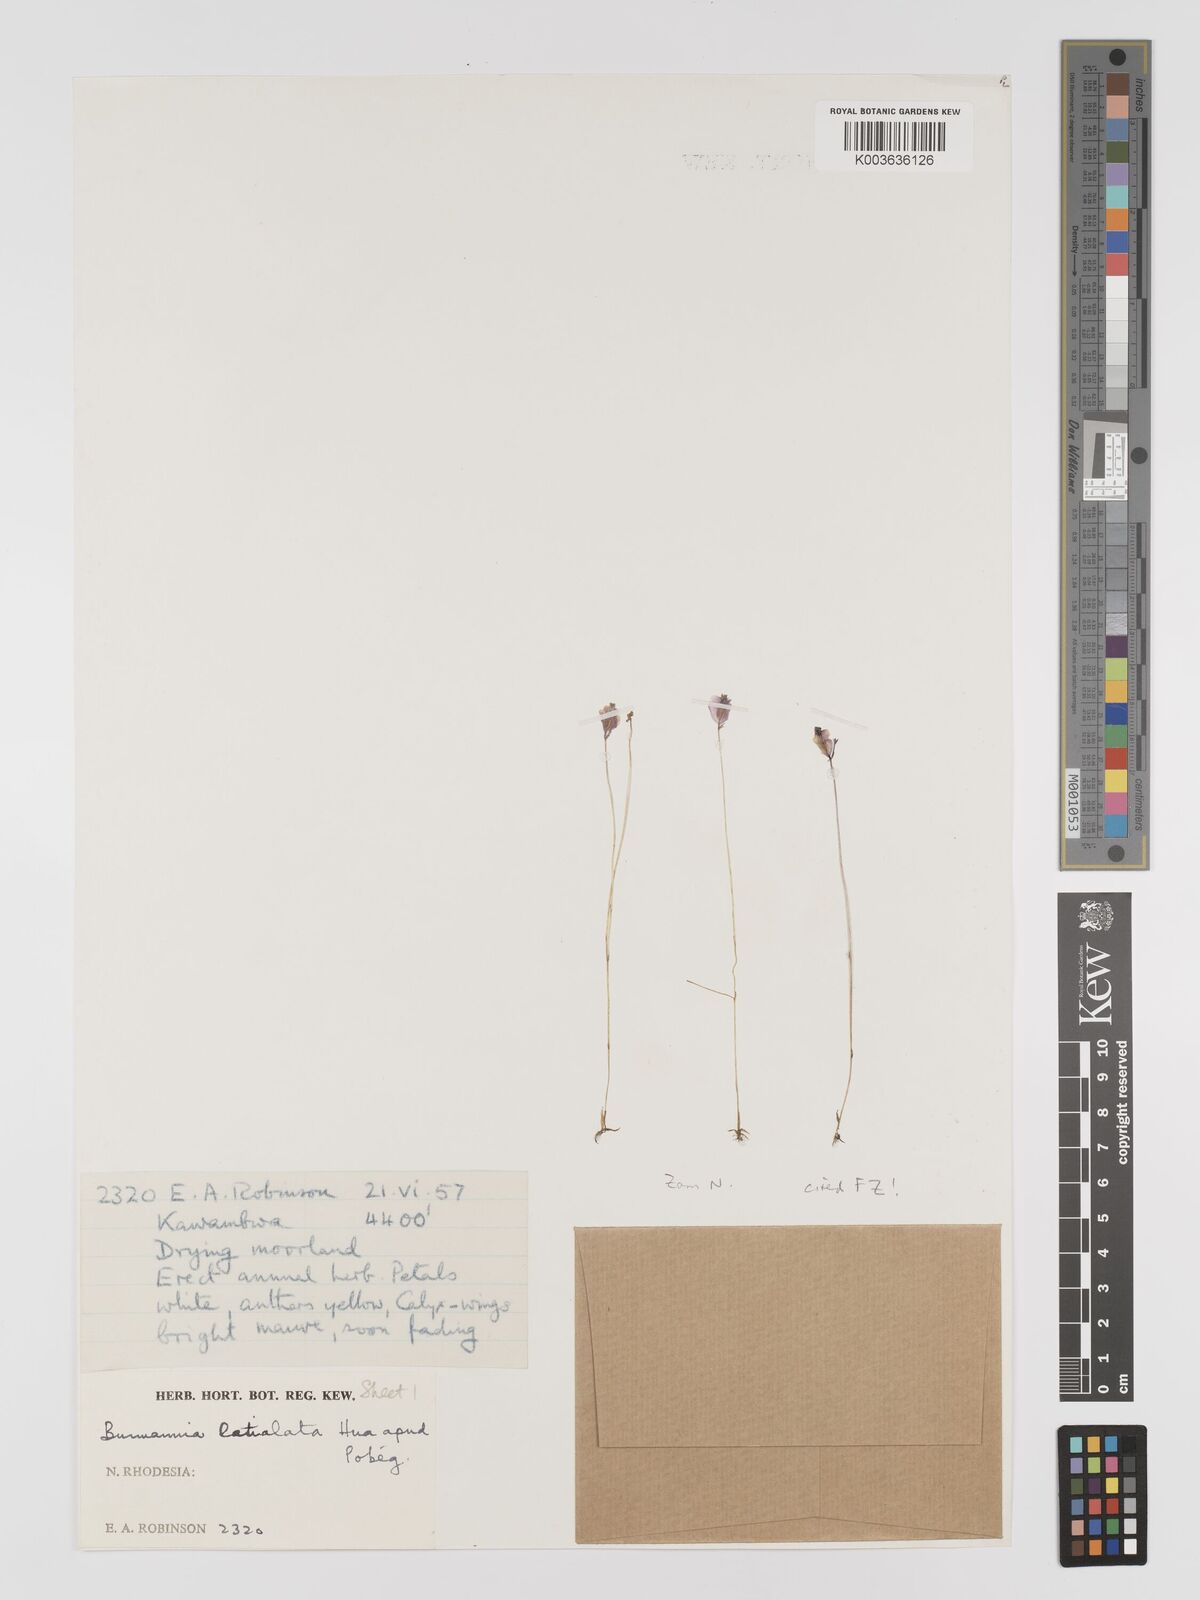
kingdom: Plantae
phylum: Tracheophyta
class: Liliopsida
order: Dioscoreales
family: Burmanniaceae
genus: Burmannia
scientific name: Burmannia madagascariensis
